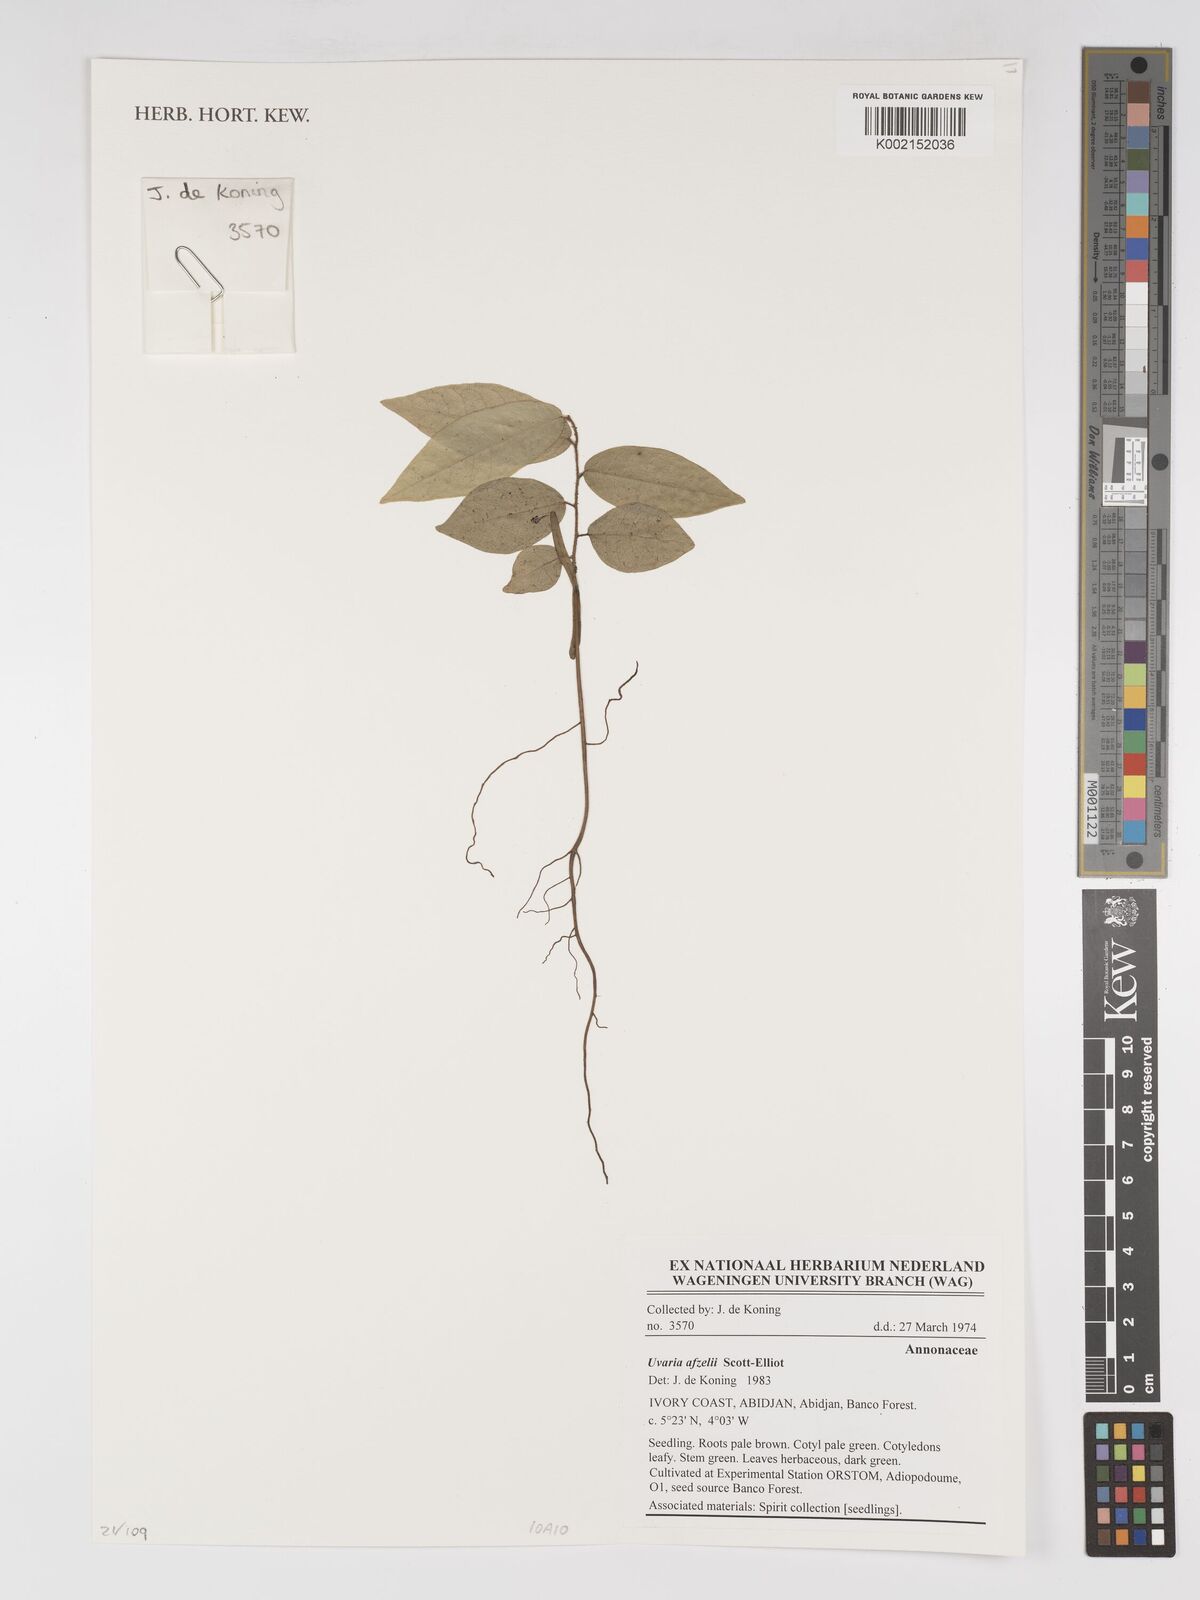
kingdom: Plantae
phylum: Tracheophyta
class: Magnoliopsida
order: Magnoliales
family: Annonaceae
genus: Uvaria
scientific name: Uvaria afzelii
